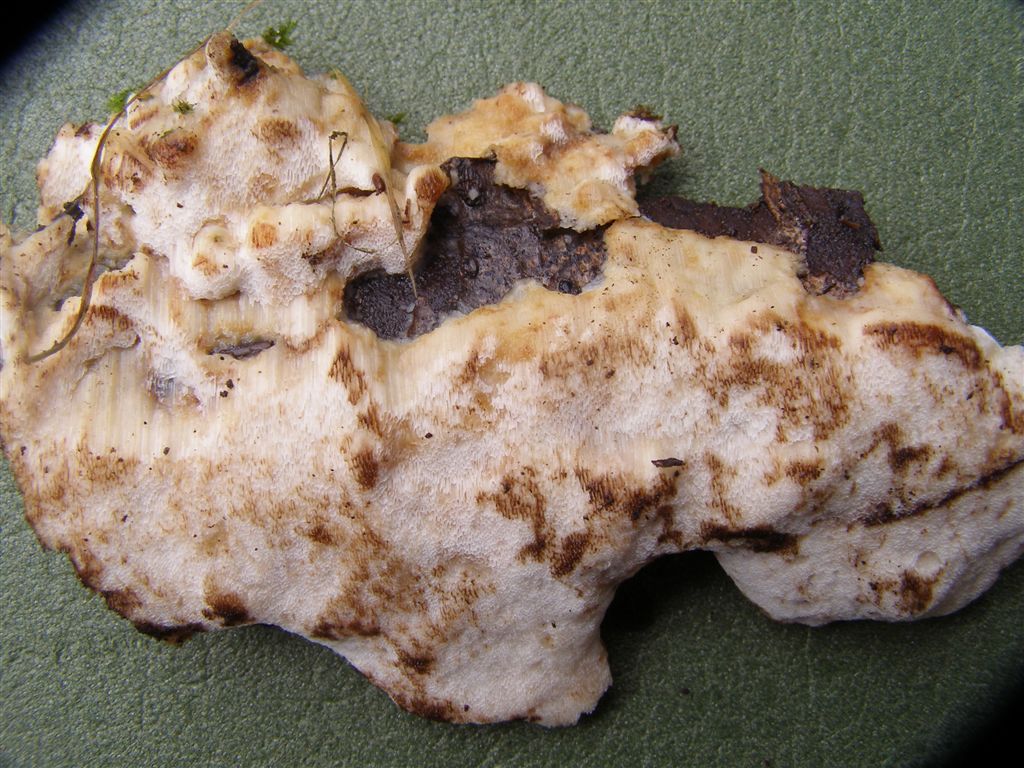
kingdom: Fungi
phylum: Basidiomycota
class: Agaricomycetes
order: Polyporales
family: Meruliaceae
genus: Physisporinus
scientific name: Physisporinus vitreus
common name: mastesvamp
